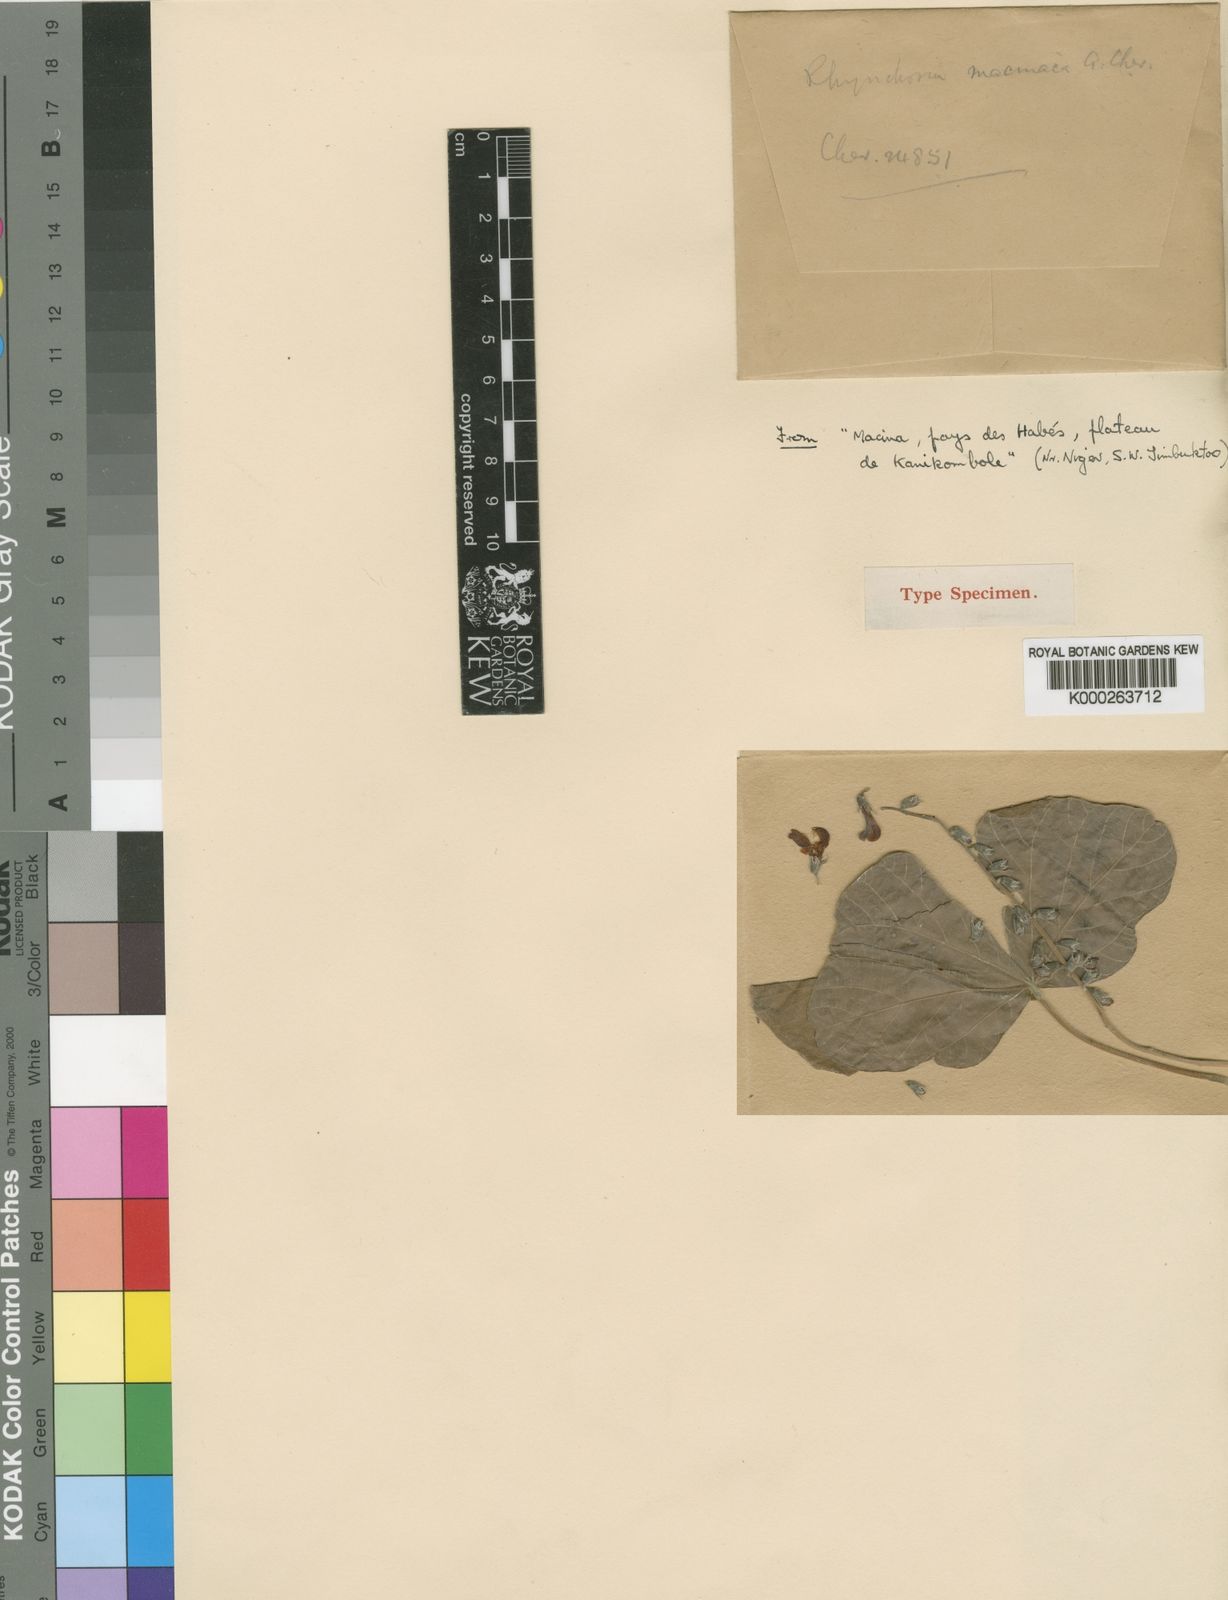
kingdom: Plantae
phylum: Tracheophyta
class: Magnoliopsida
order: Fabales
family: Fabaceae
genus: Rhynchosia
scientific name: Rhynchosia sublobata
